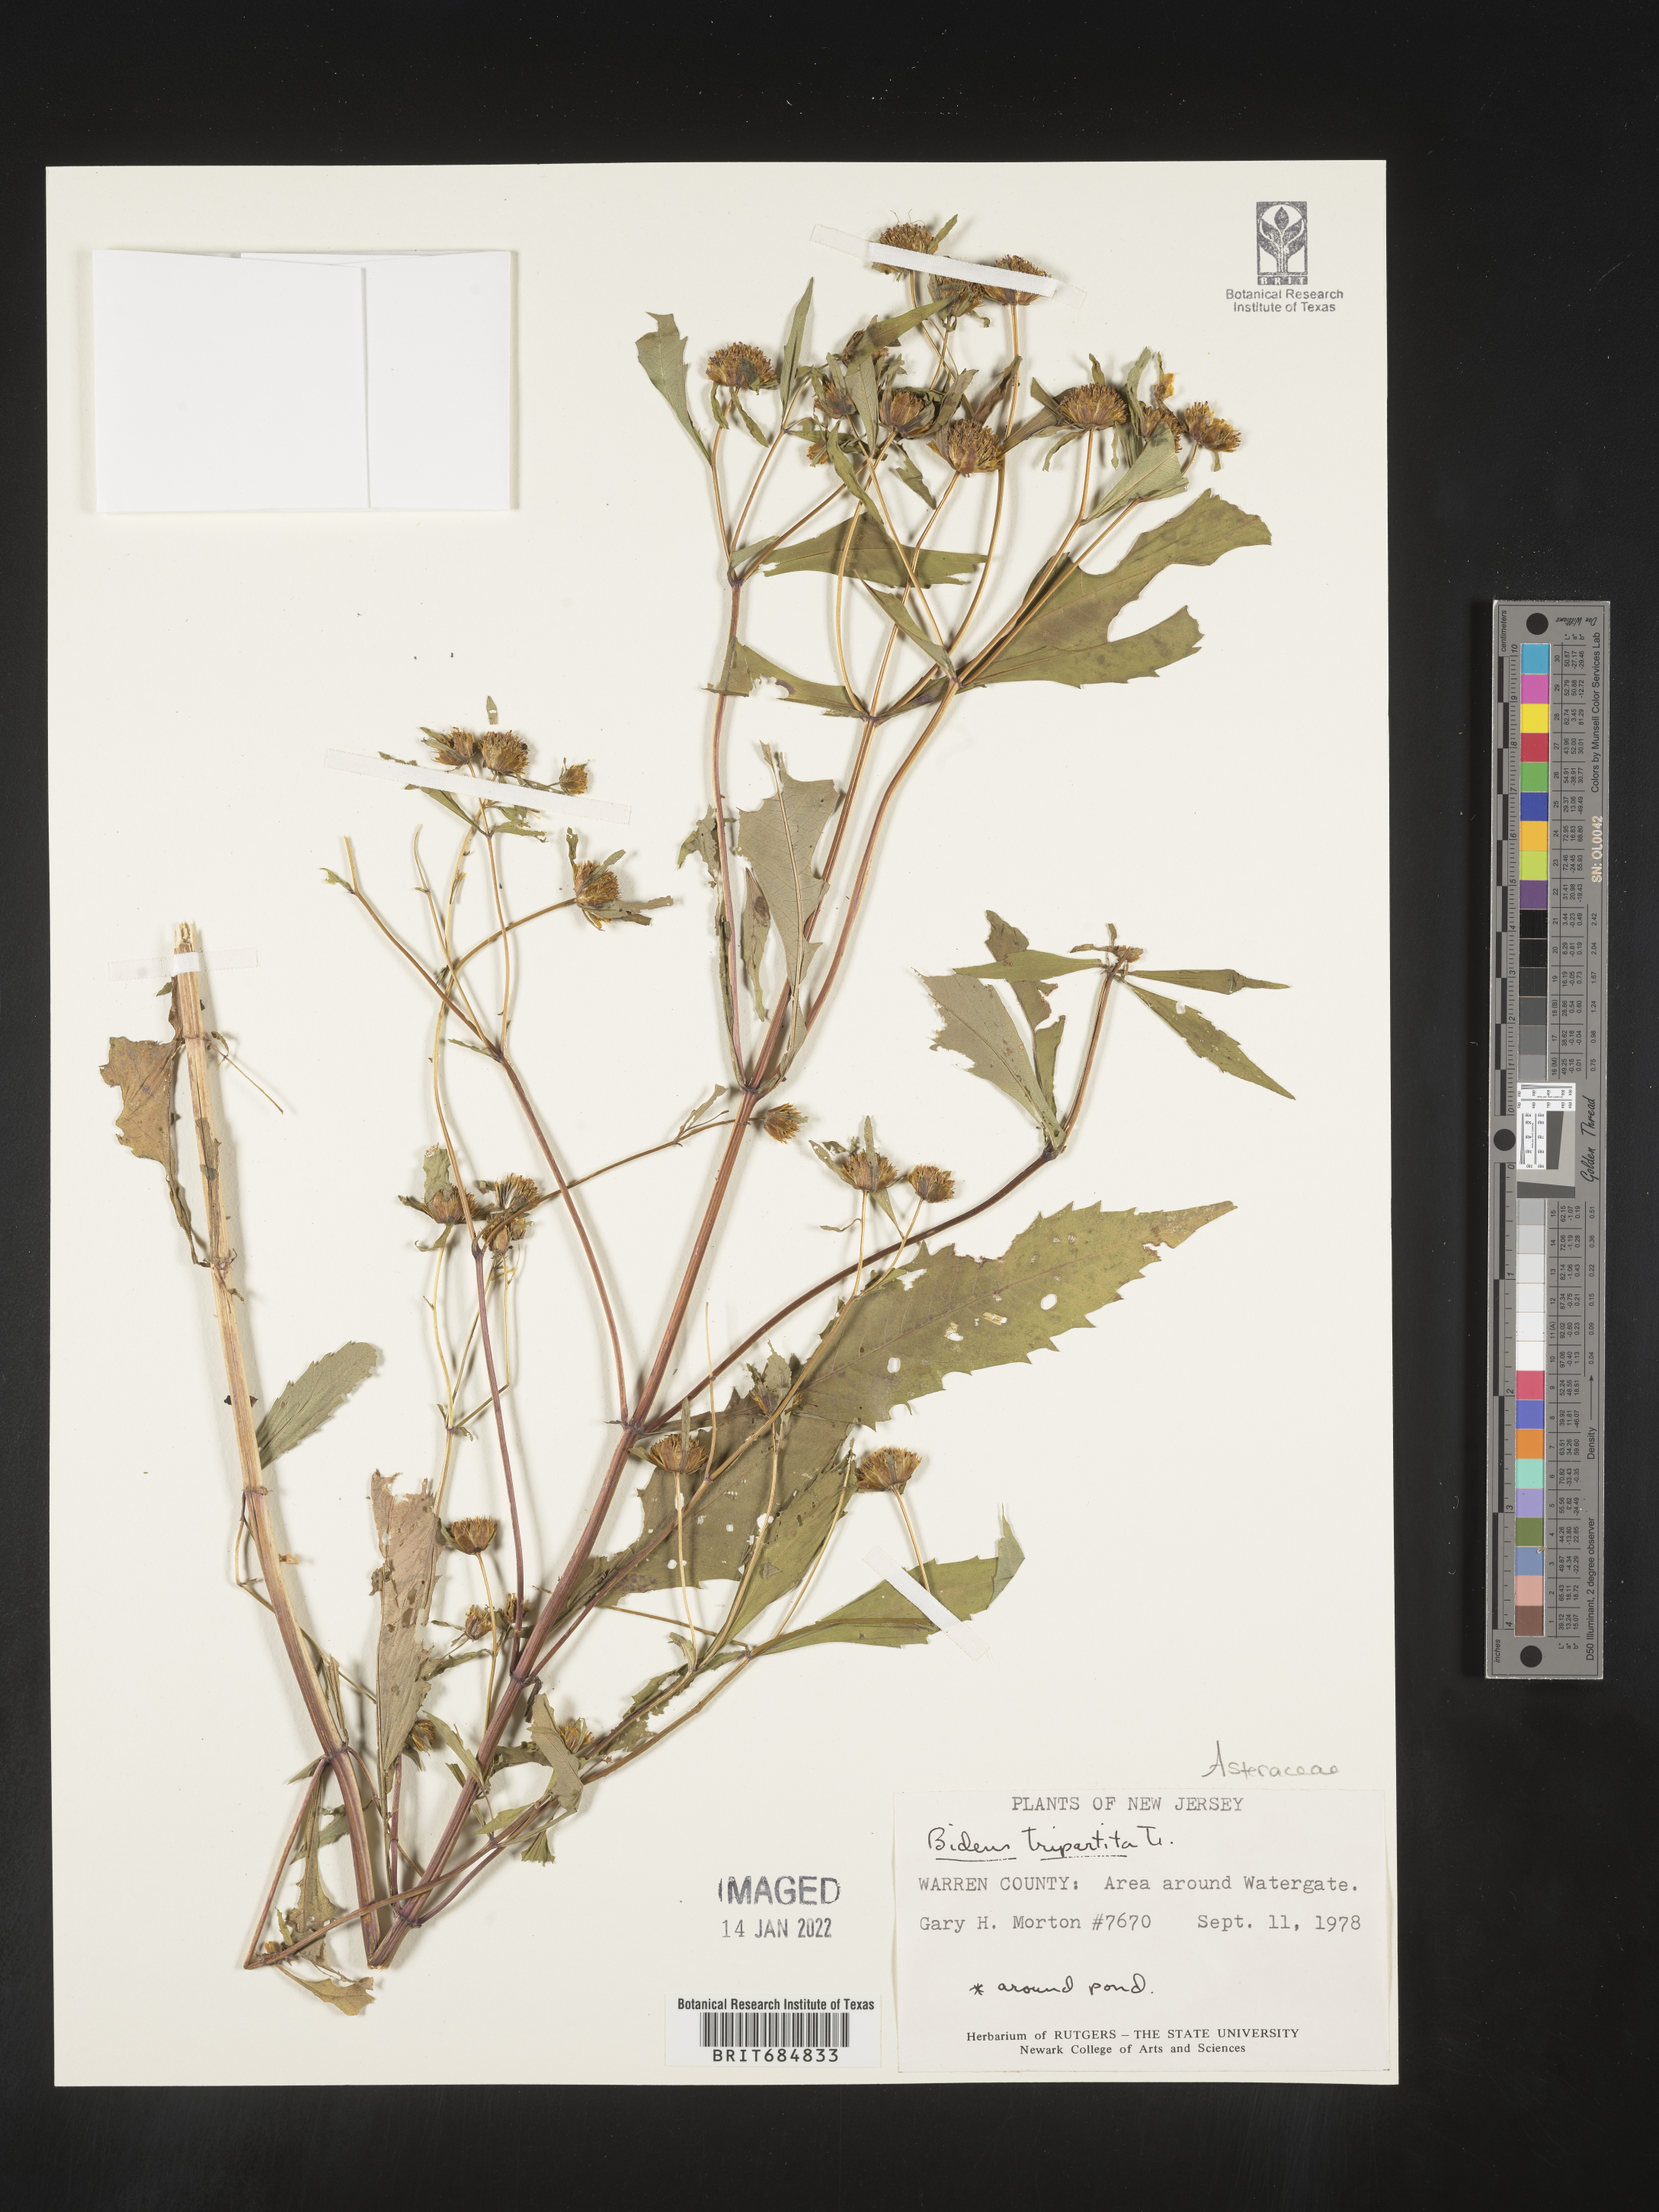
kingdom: Plantae
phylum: Tracheophyta
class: Magnoliopsida
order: Asterales
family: Asteraceae
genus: Bidens
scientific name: Bidens tripartita
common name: Trifid bur-marigold
